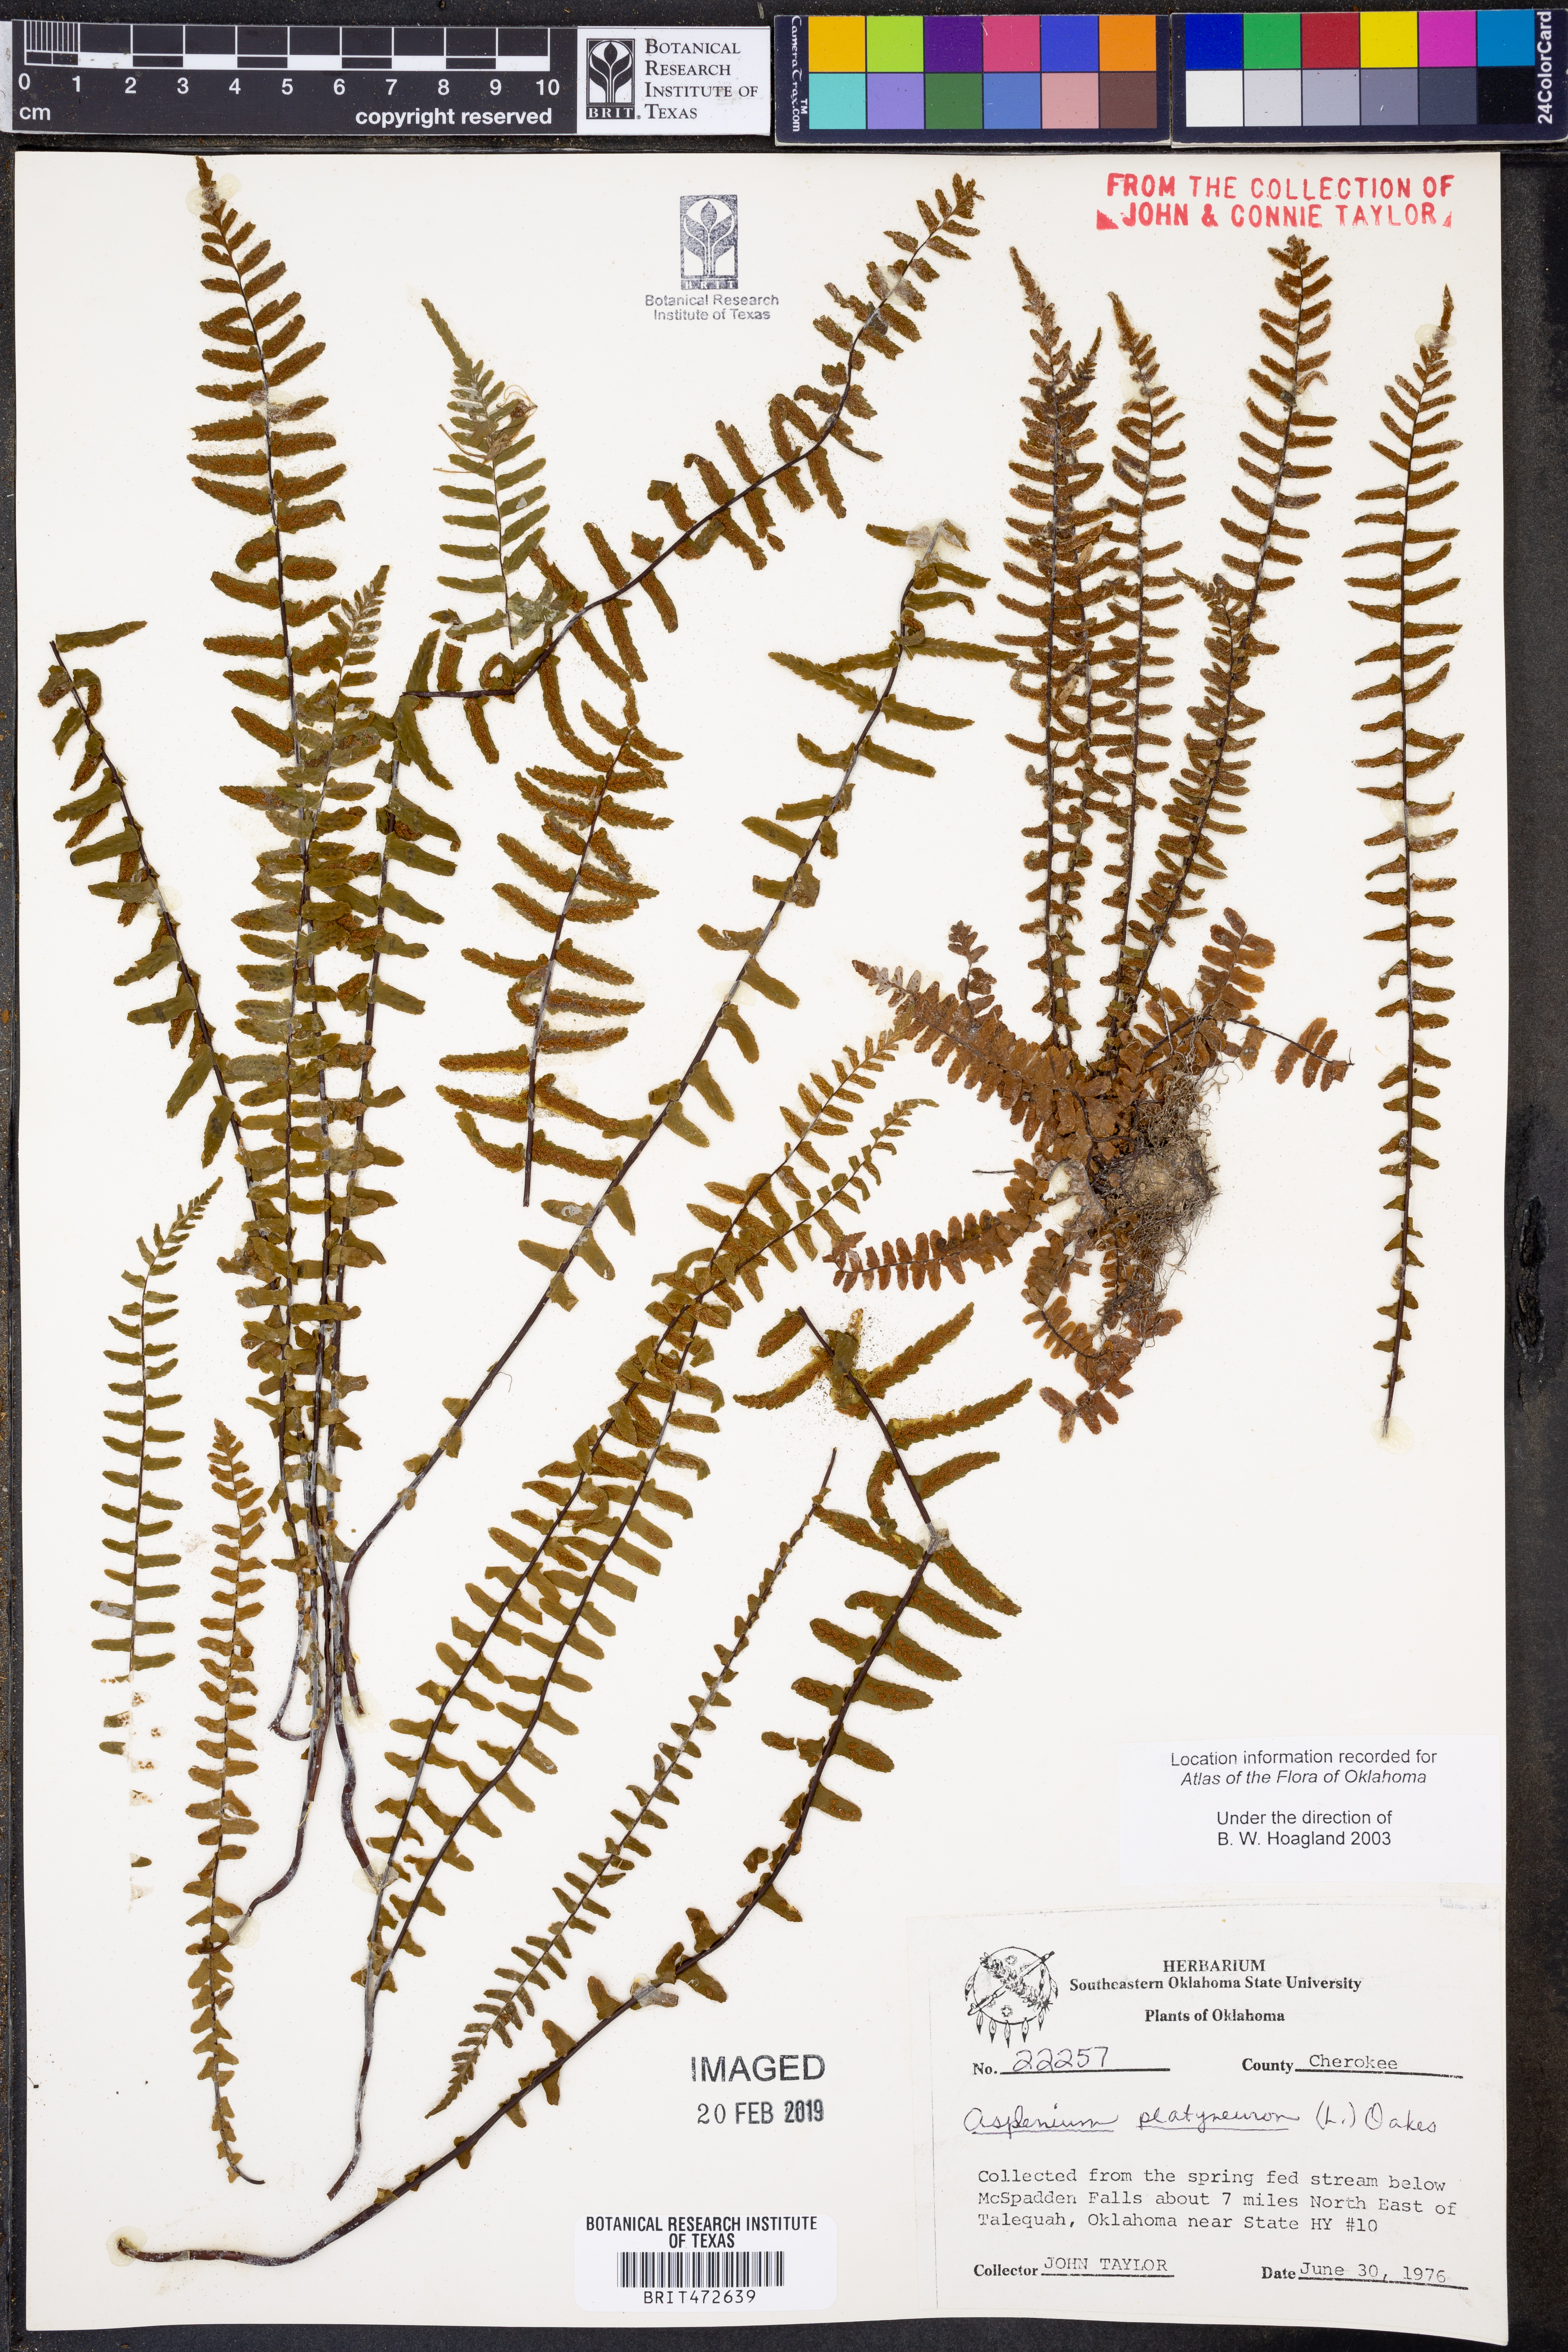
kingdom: Plantae
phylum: Tracheophyta
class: Polypodiopsida
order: Polypodiales
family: Aspleniaceae
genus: Asplenium
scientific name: Asplenium platyneuron
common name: Ebony spleenwort
